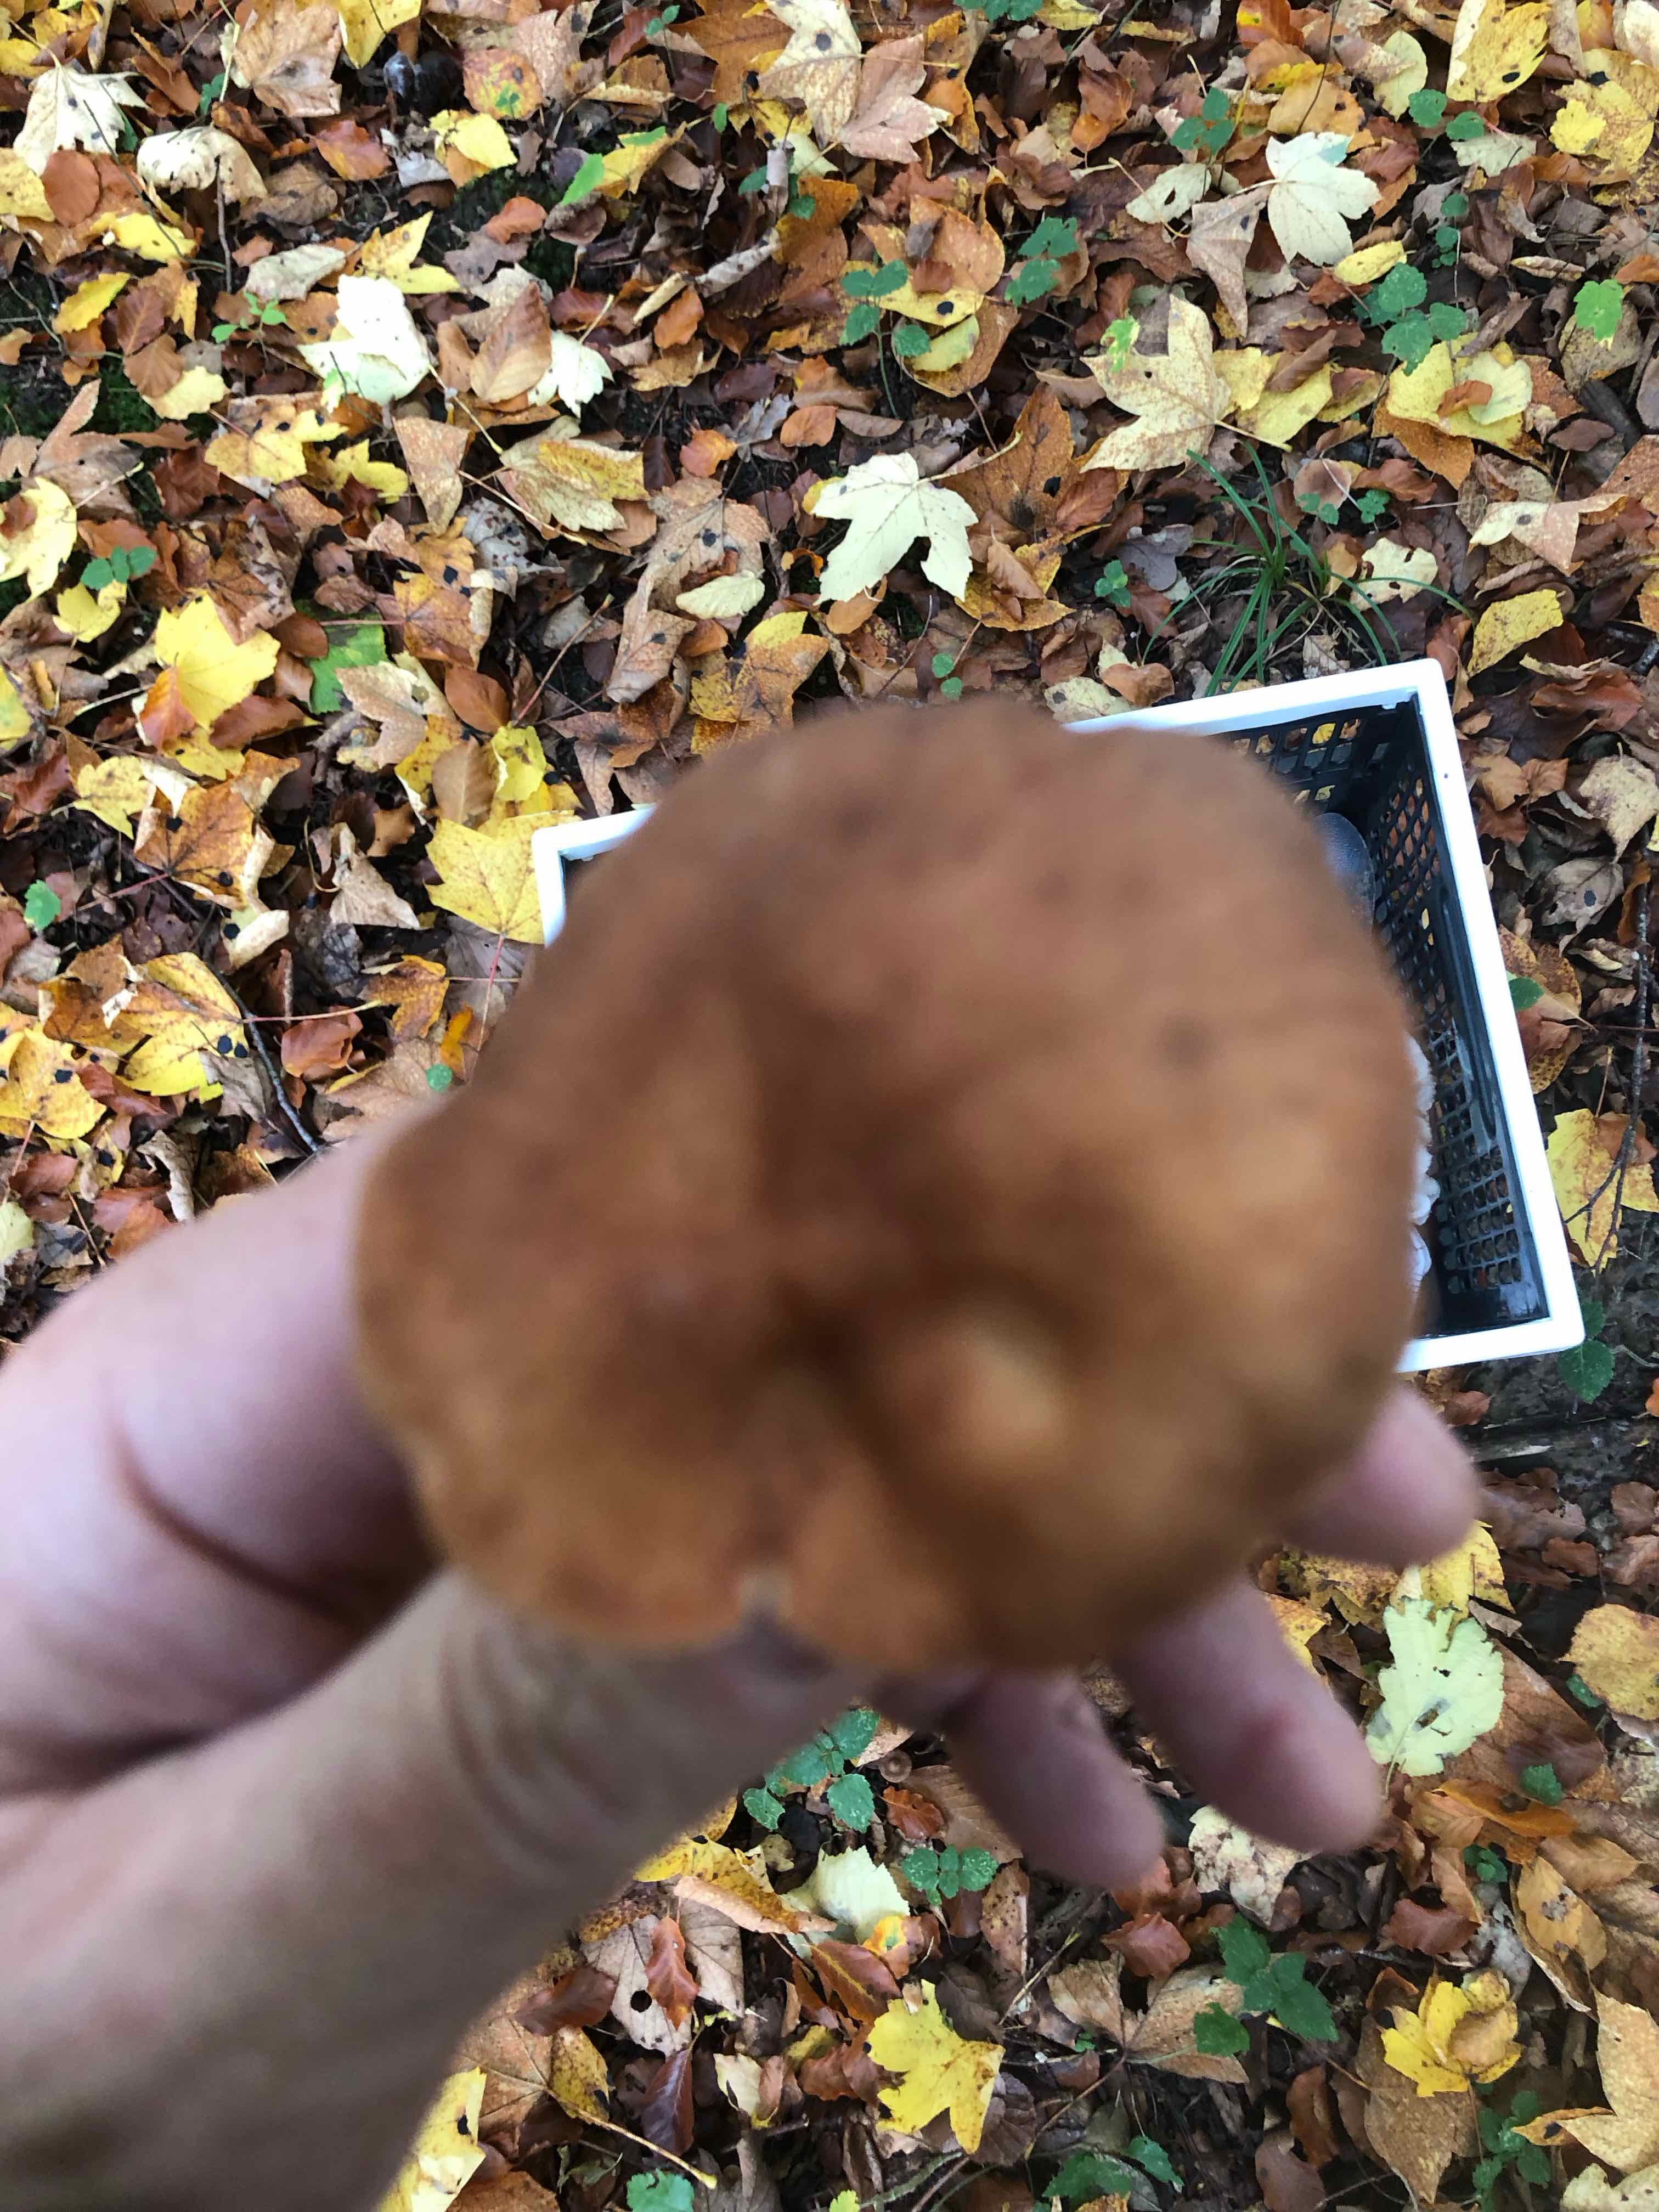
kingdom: Fungi
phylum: Basidiomycota
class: Agaricomycetes
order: Russulales
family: Russulaceae
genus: Lactarius
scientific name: Lactarius
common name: mælkehat
